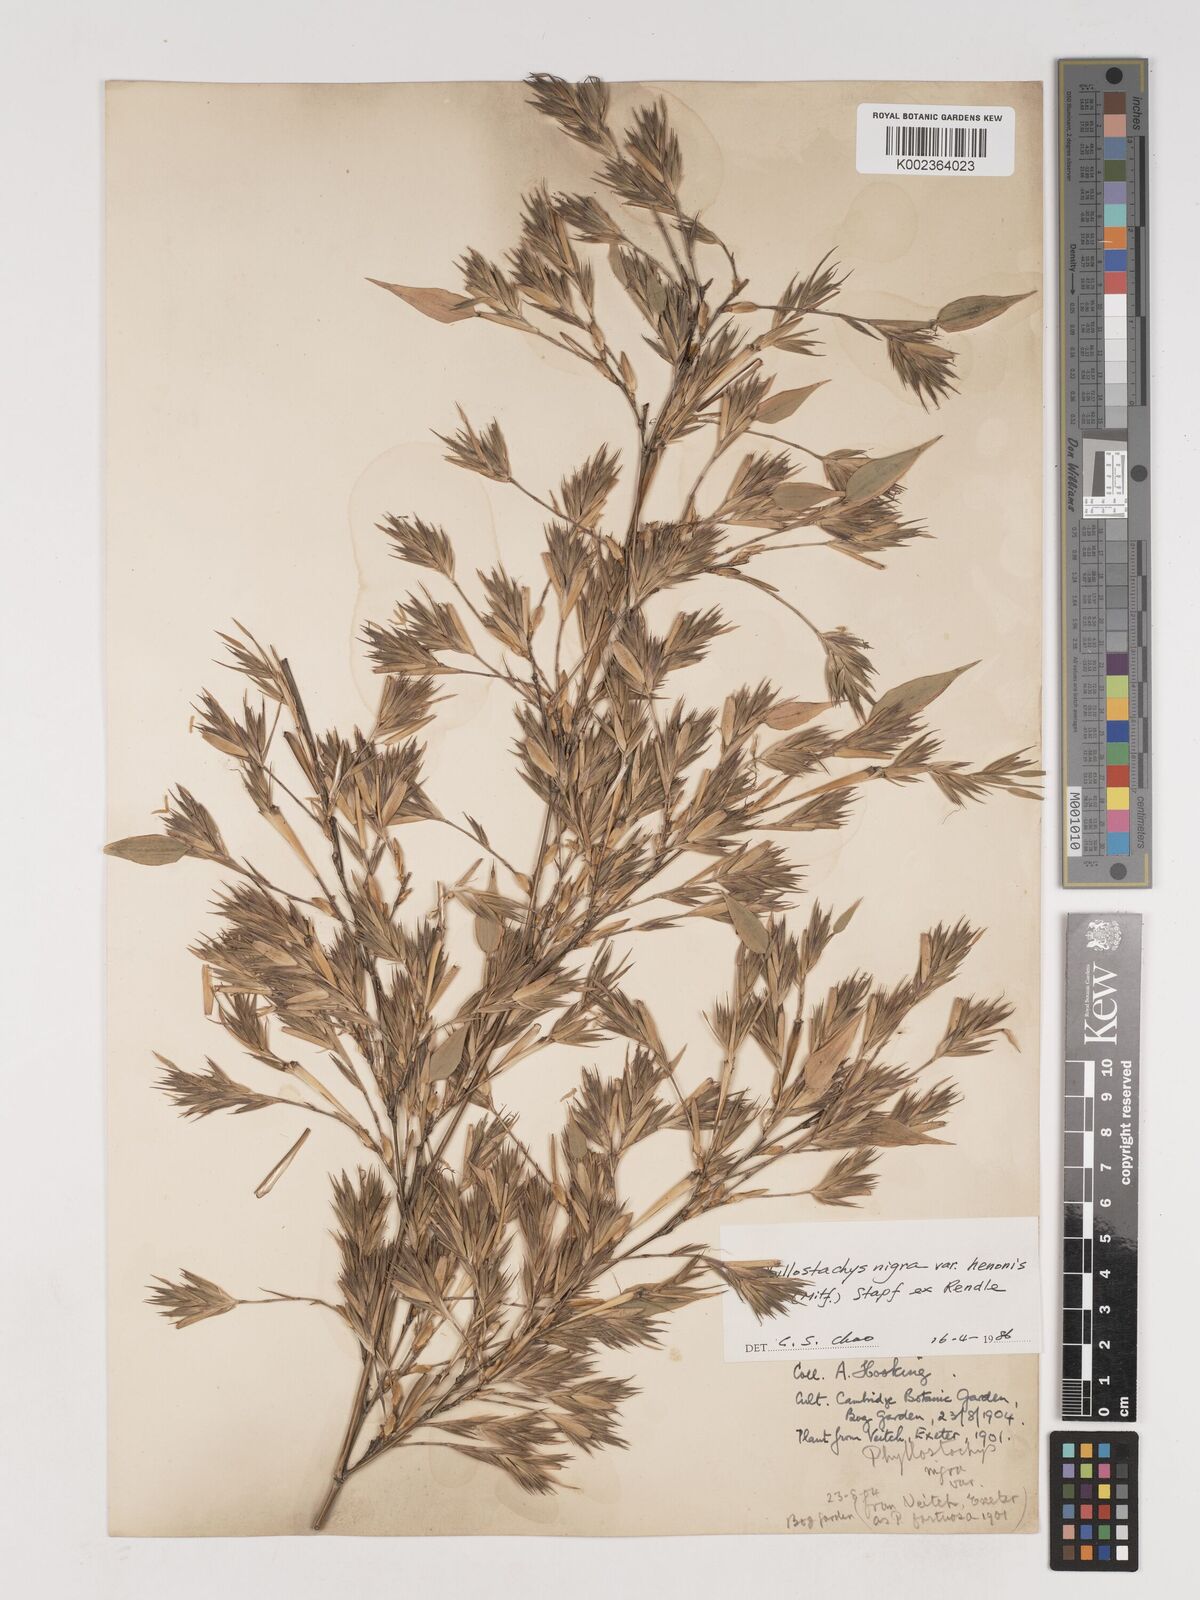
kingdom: Plantae
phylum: Tracheophyta
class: Liliopsida
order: Poales
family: Poaceae
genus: Phyllostachys
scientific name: Phyllostachys nigra
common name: Black bamboo
